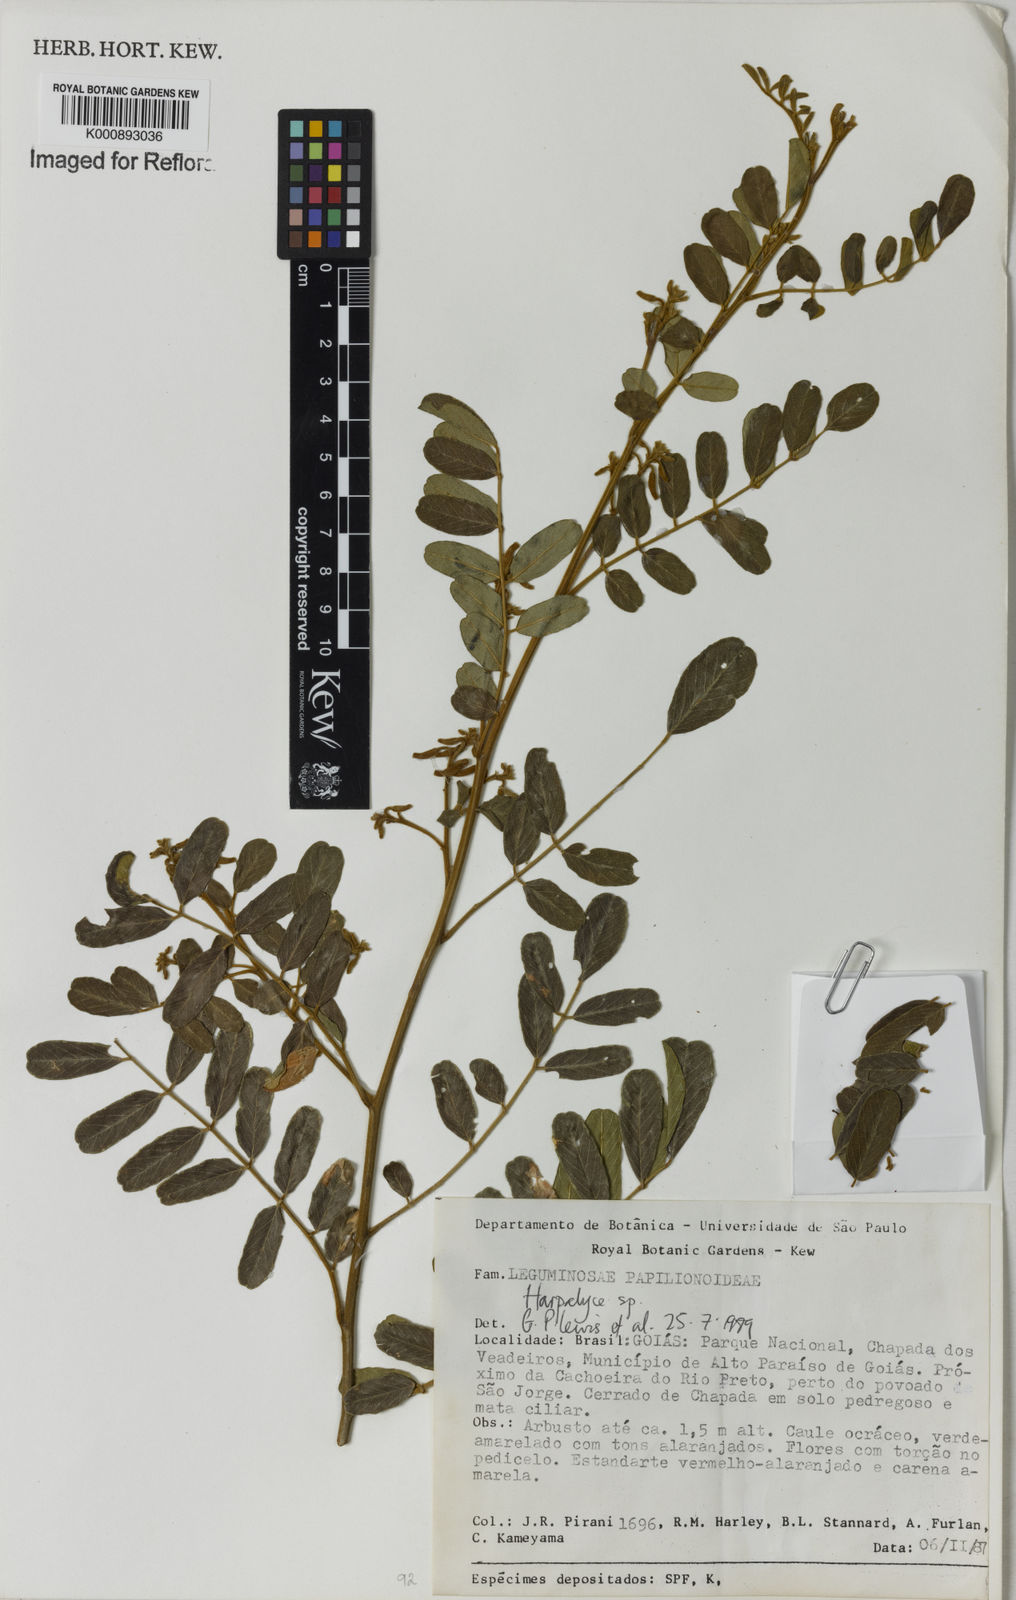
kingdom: Plantae
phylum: Tracheophyta
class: Magnoliopsida
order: Fabales
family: Fabaceae
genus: Harpalyce
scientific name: Harpalyce
